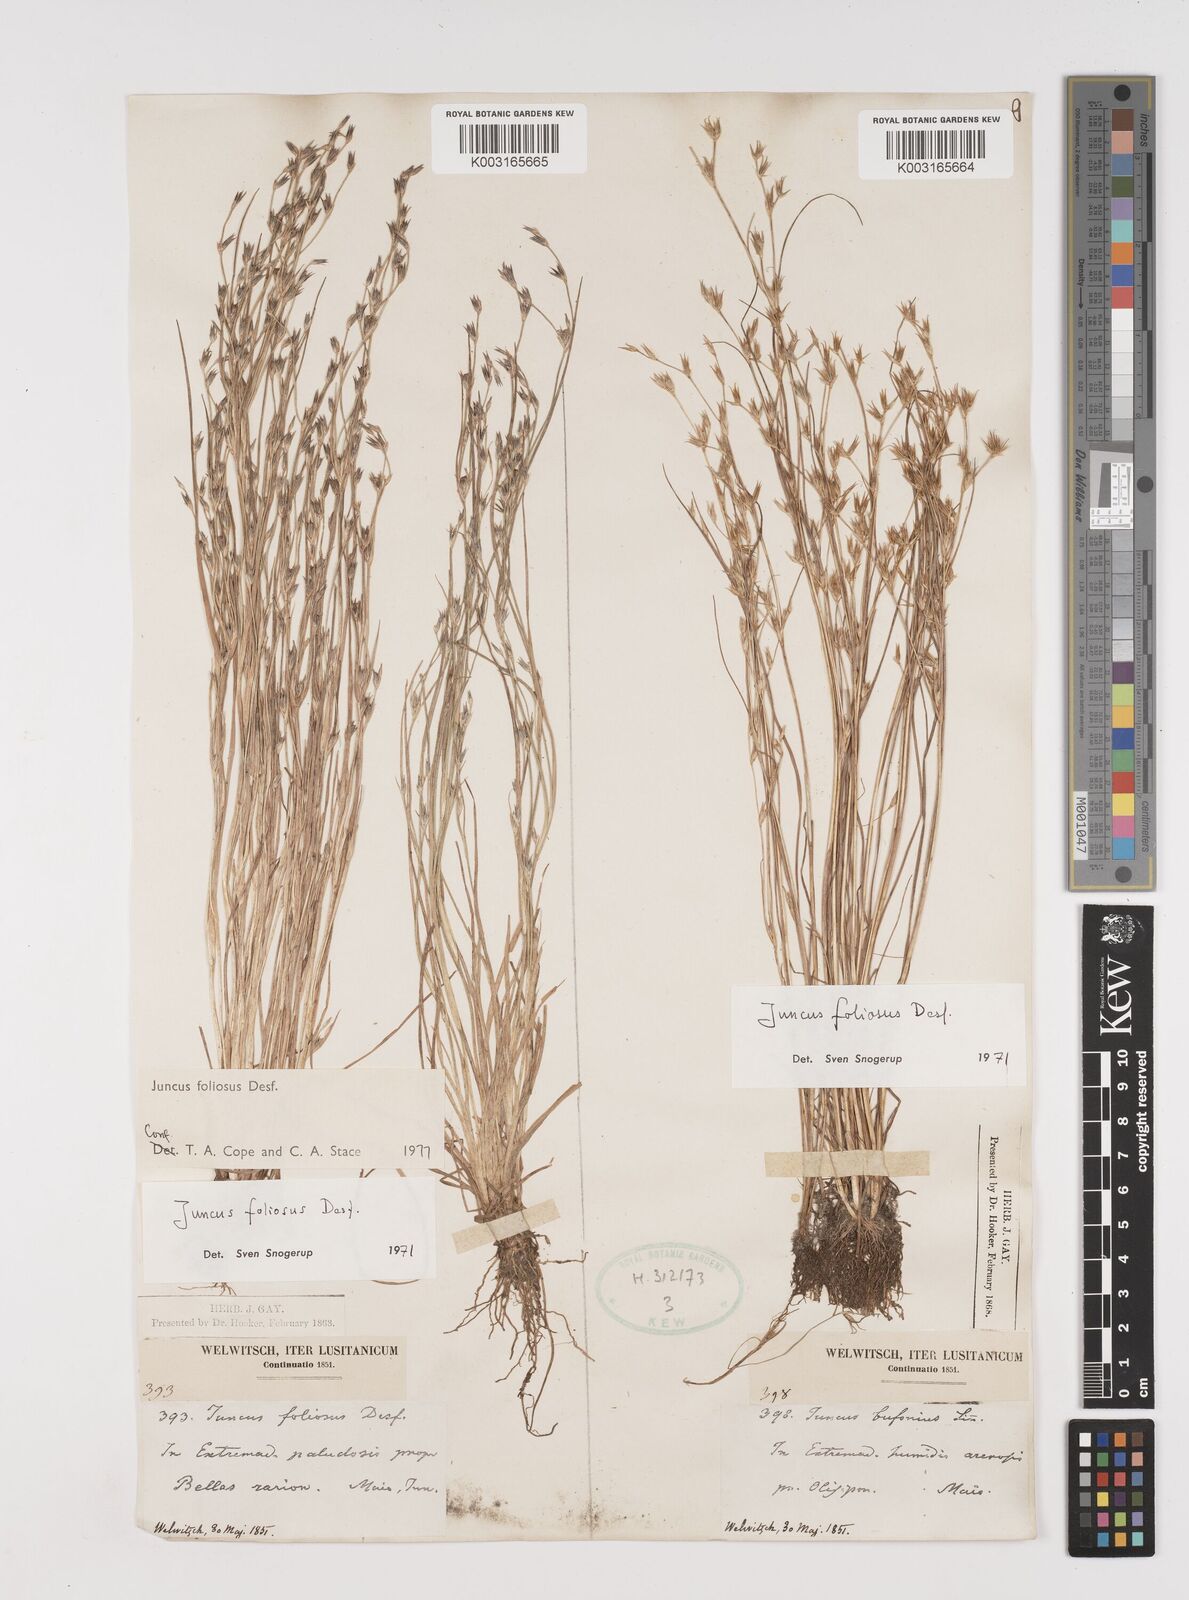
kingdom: Plantae
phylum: Tracheophyta
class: Liliopsida
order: Poales
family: Juncaceae
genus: Juncus
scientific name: Juncus foliosus
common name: Leafy rush
